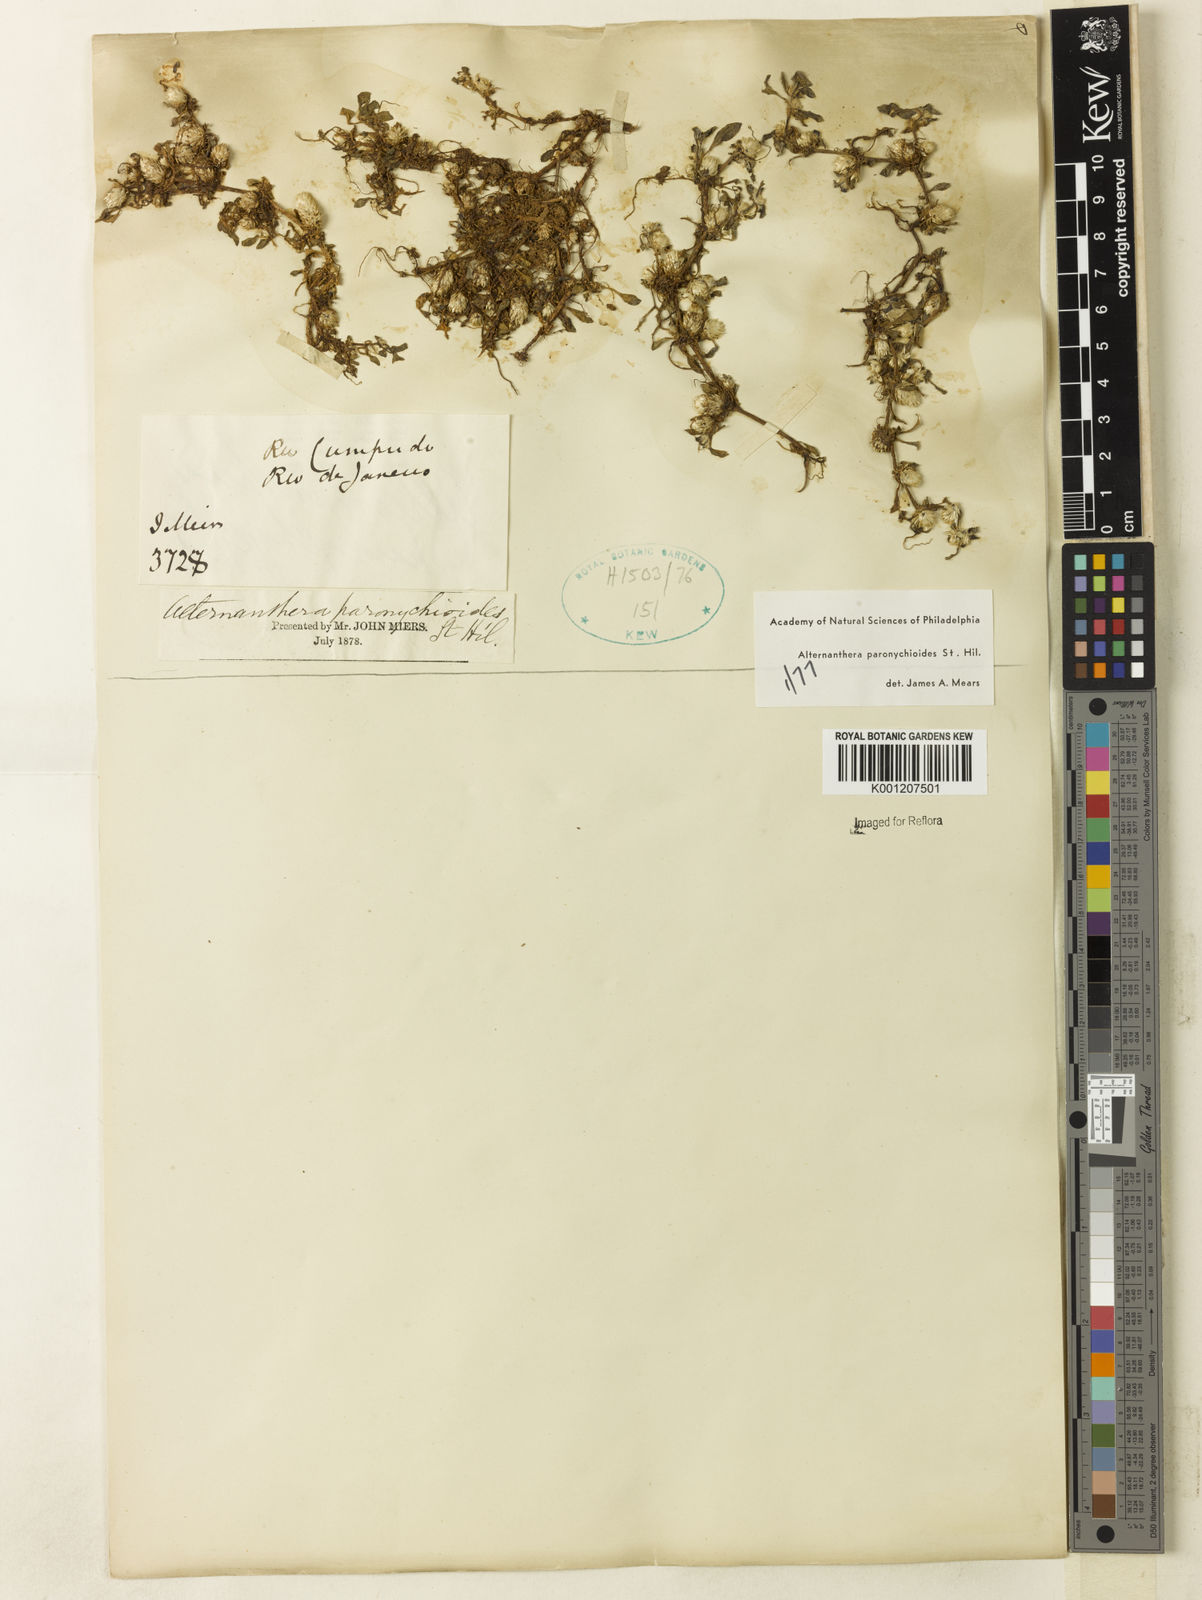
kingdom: Plantae
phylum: Tracheophyta
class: Magnoliopsida
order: Caryophyllales
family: Amaranthaceae
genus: Alternanthera
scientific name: Alternanthera
